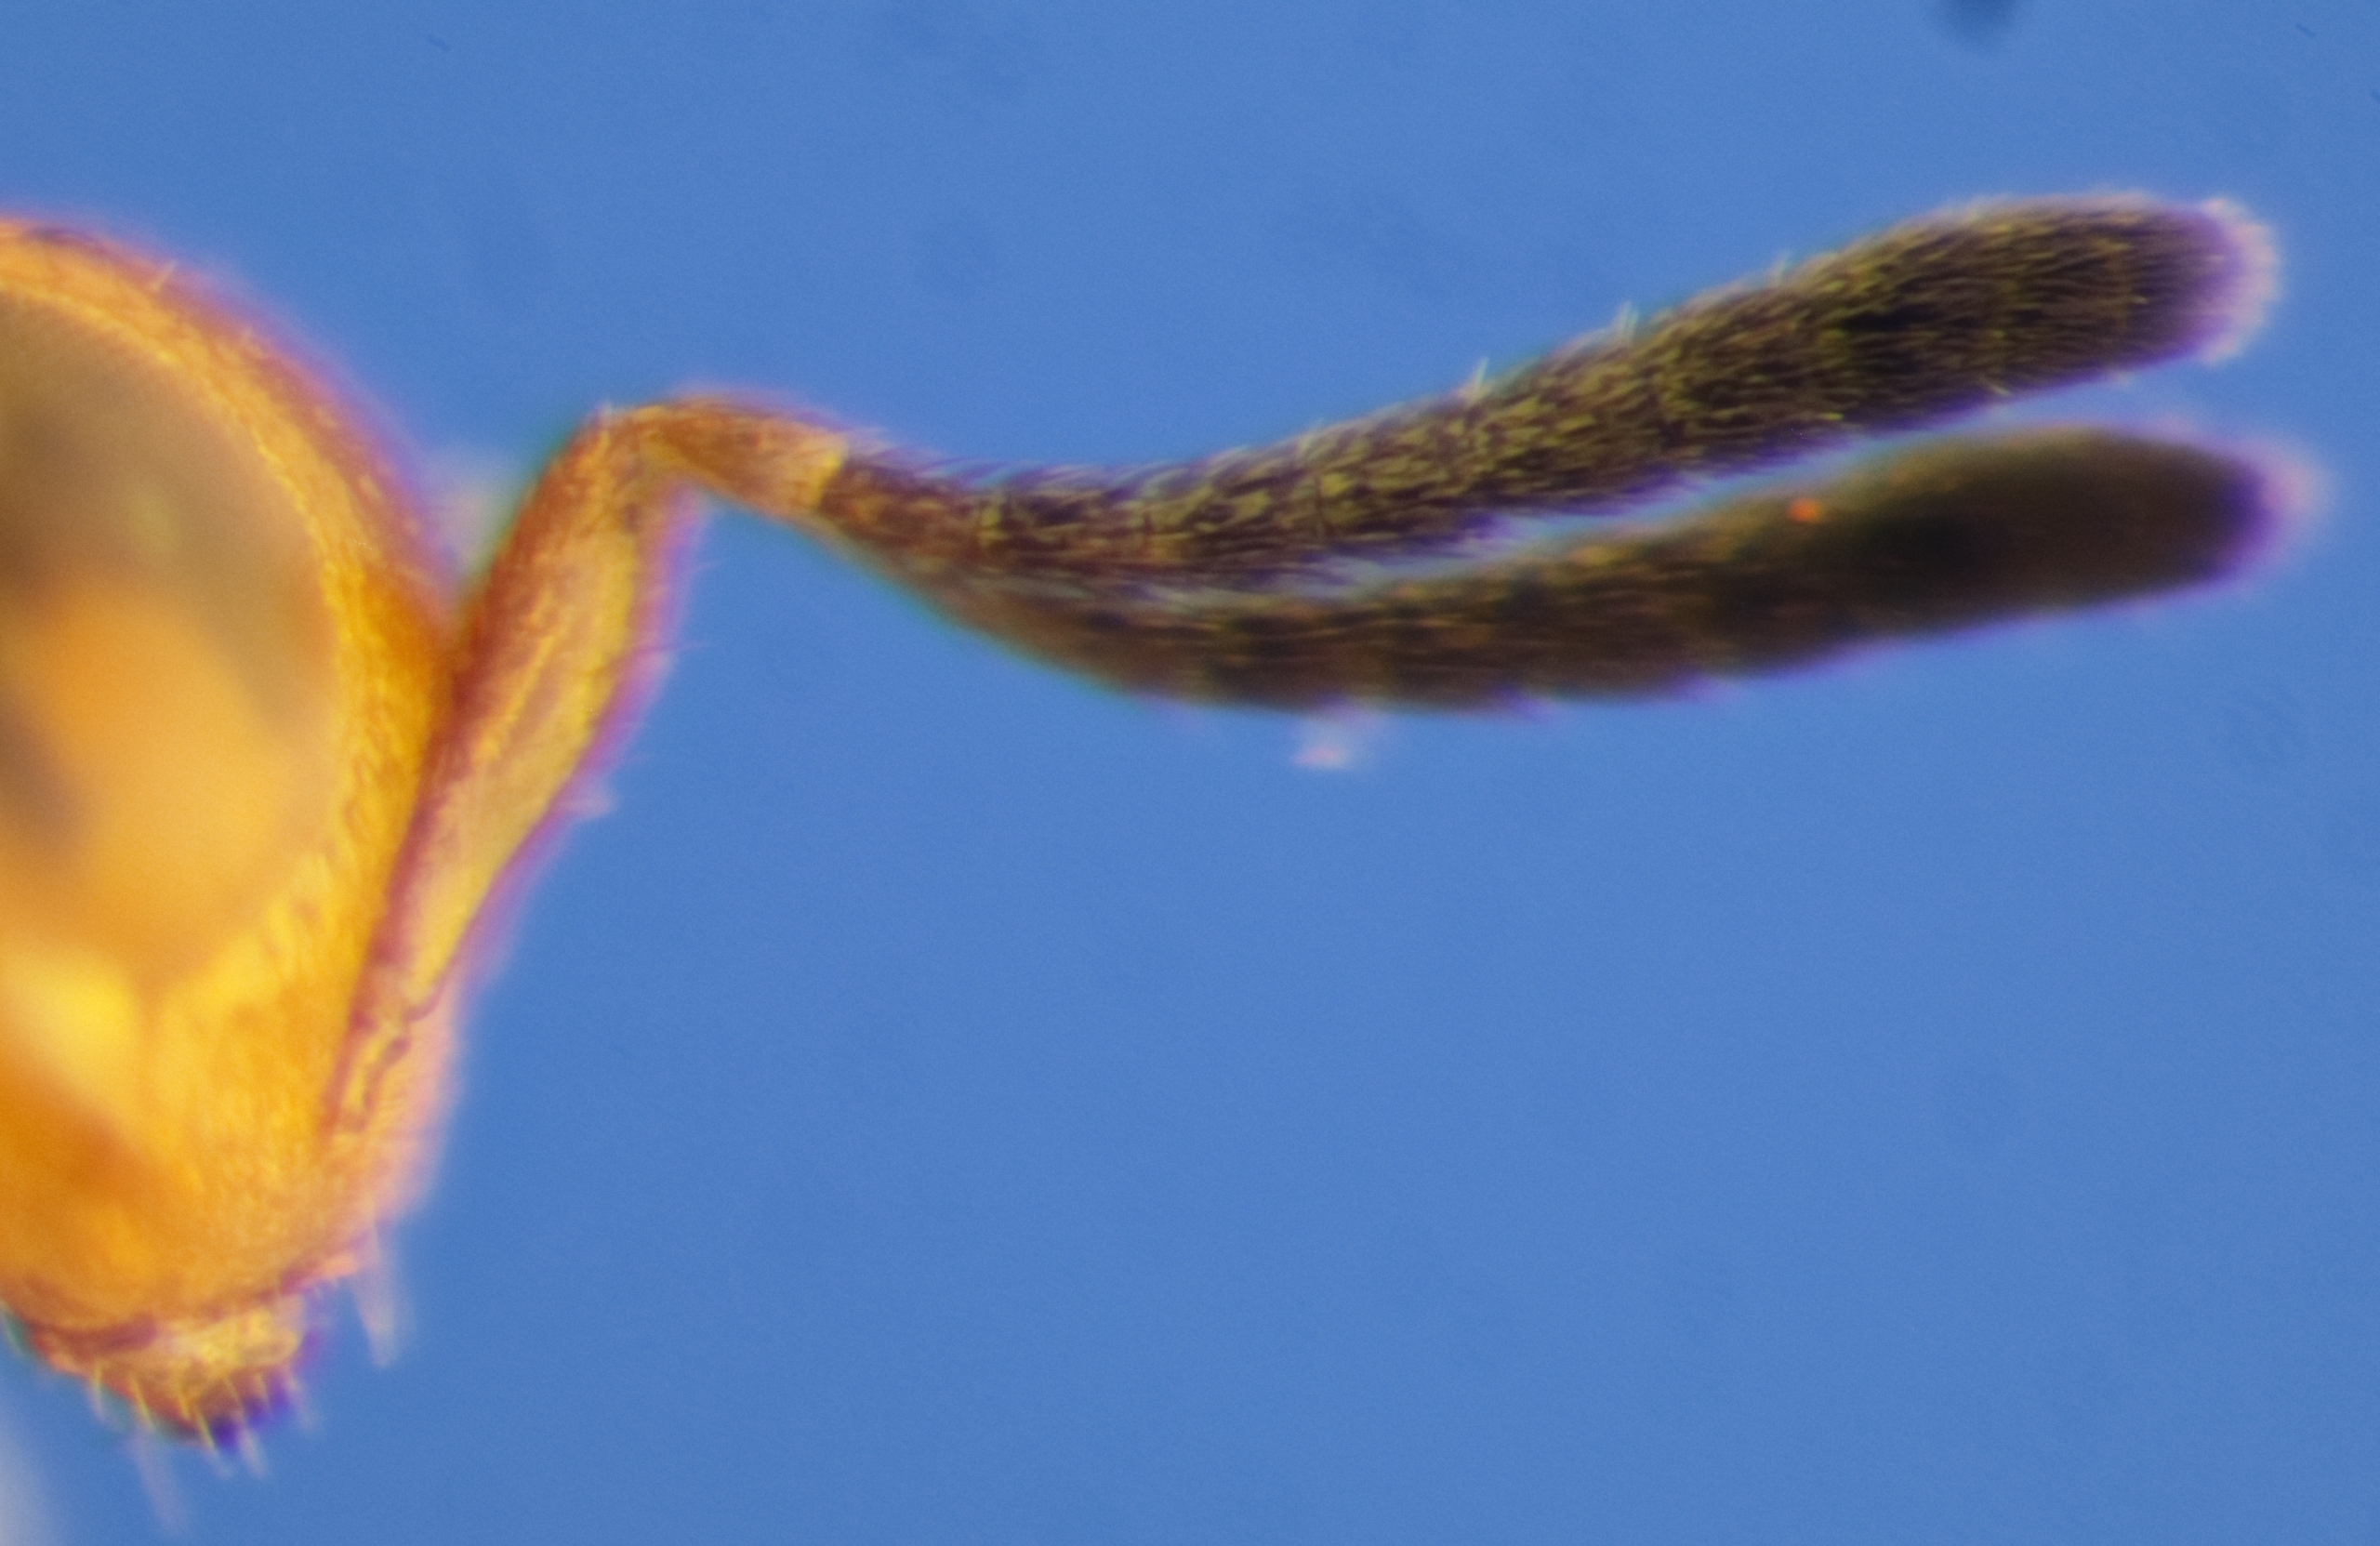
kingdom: Animalia
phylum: Arthropoda
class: Insecta
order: Hymenoptera
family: Encyrtidae
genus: Ectroma
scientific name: Ectroma arenarium
